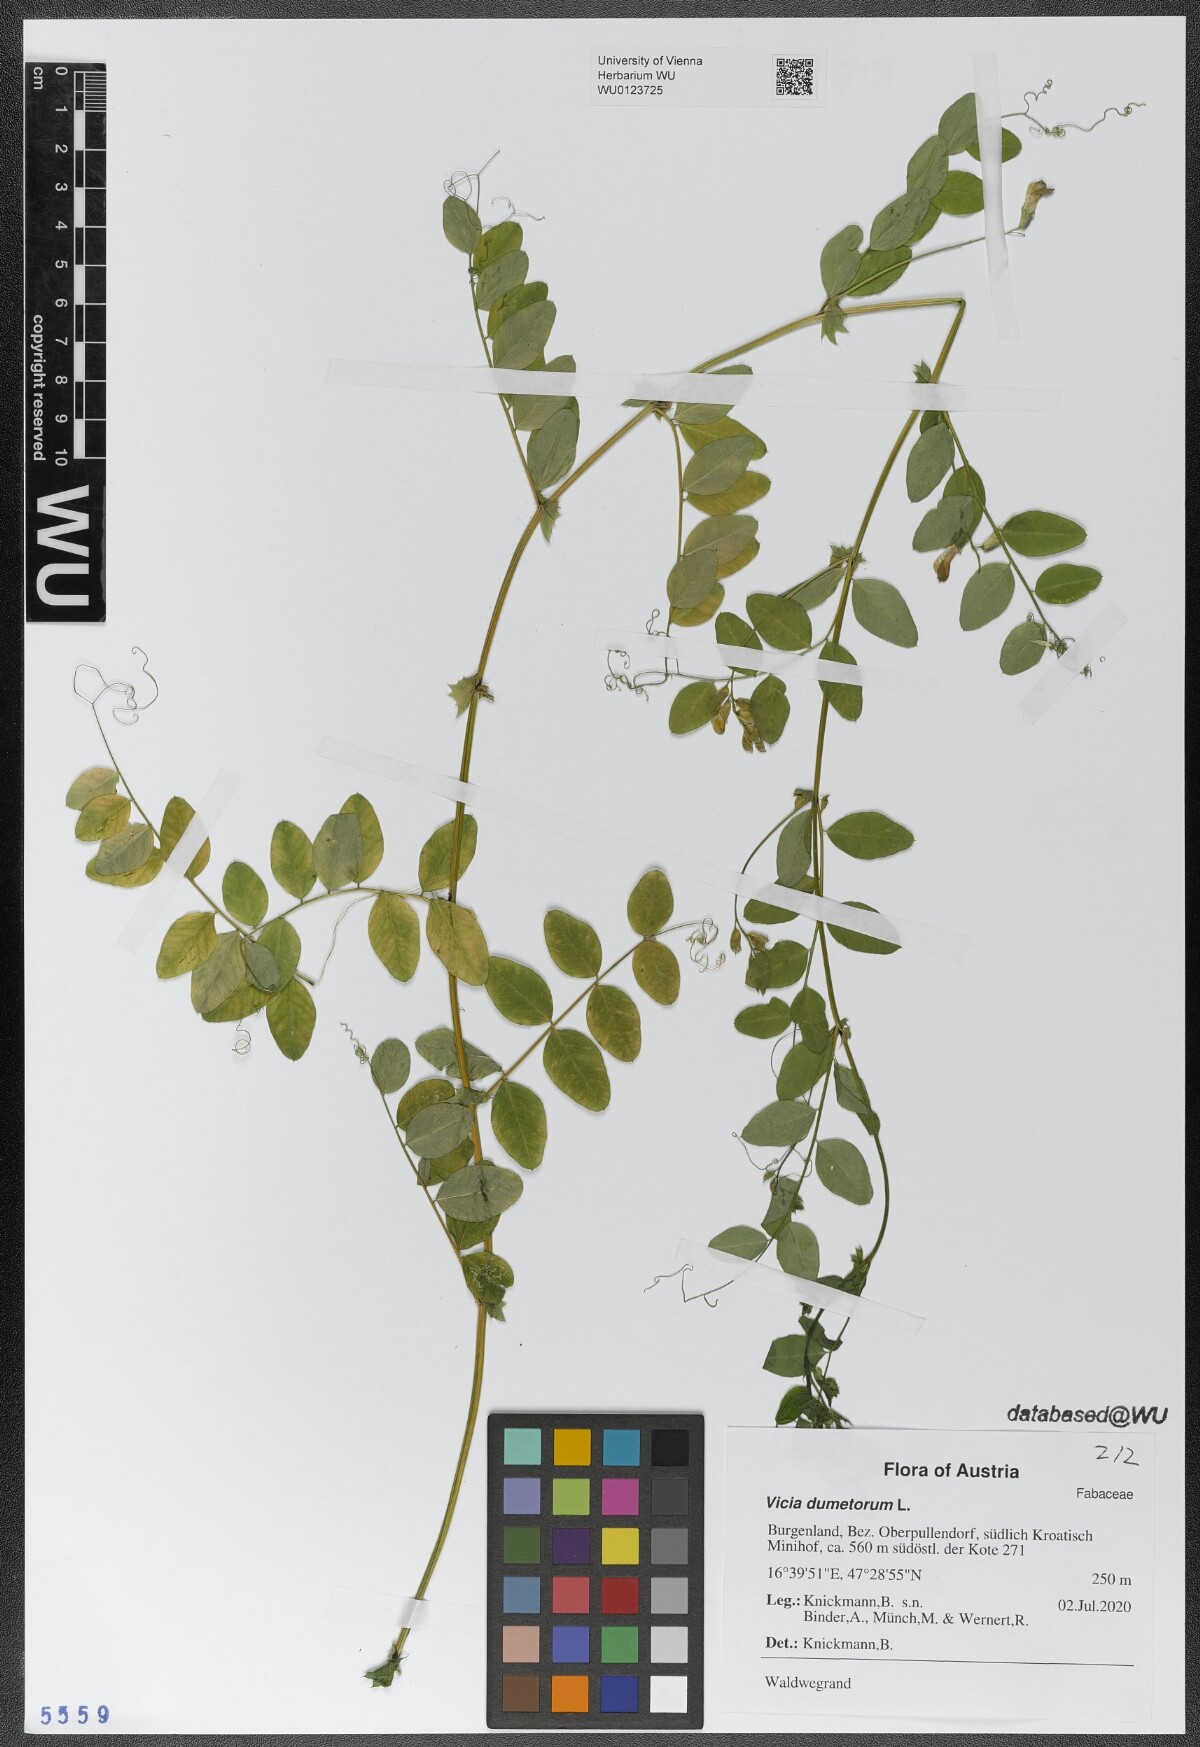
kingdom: Plantae
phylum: Tracheophyta
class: Magnoliopsida
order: Fabales
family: Fabaceae
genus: Vicia
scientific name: Vicia dumetorum
